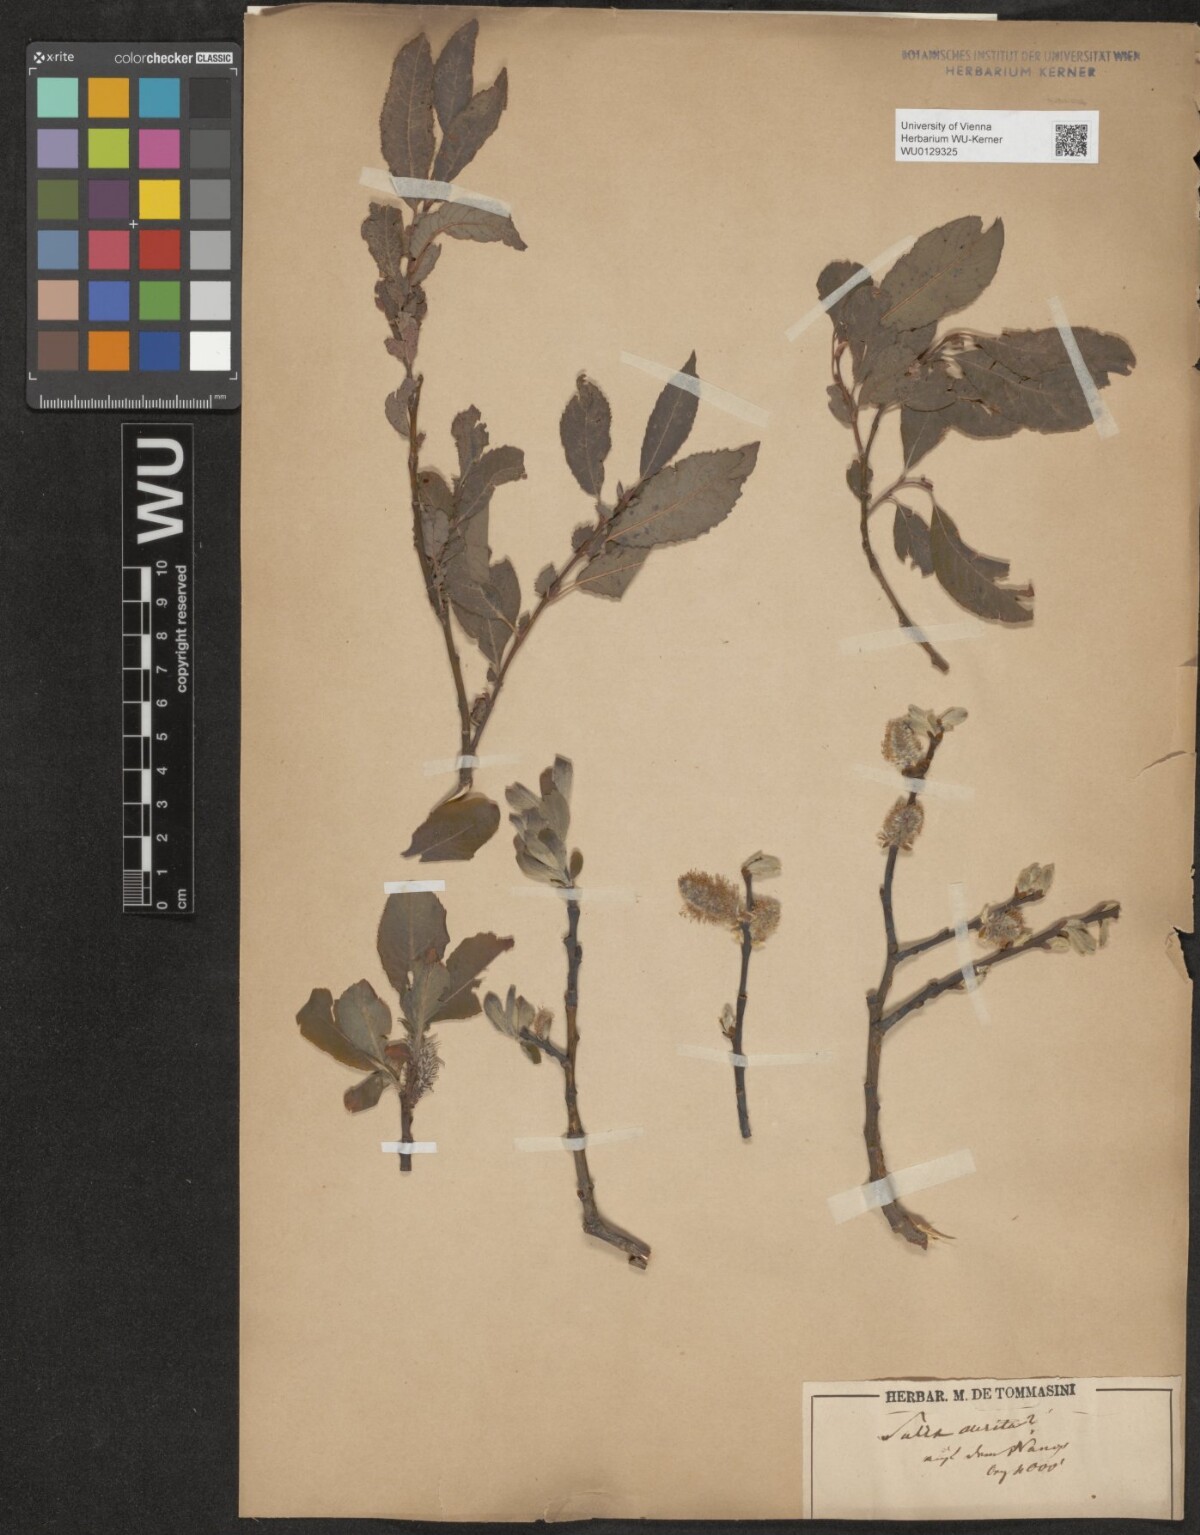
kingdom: Plantae
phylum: Tracheophyta
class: Magnoliopsida
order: Malpighiales
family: Salicaceae
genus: Salix
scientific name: Salix appendiculata
